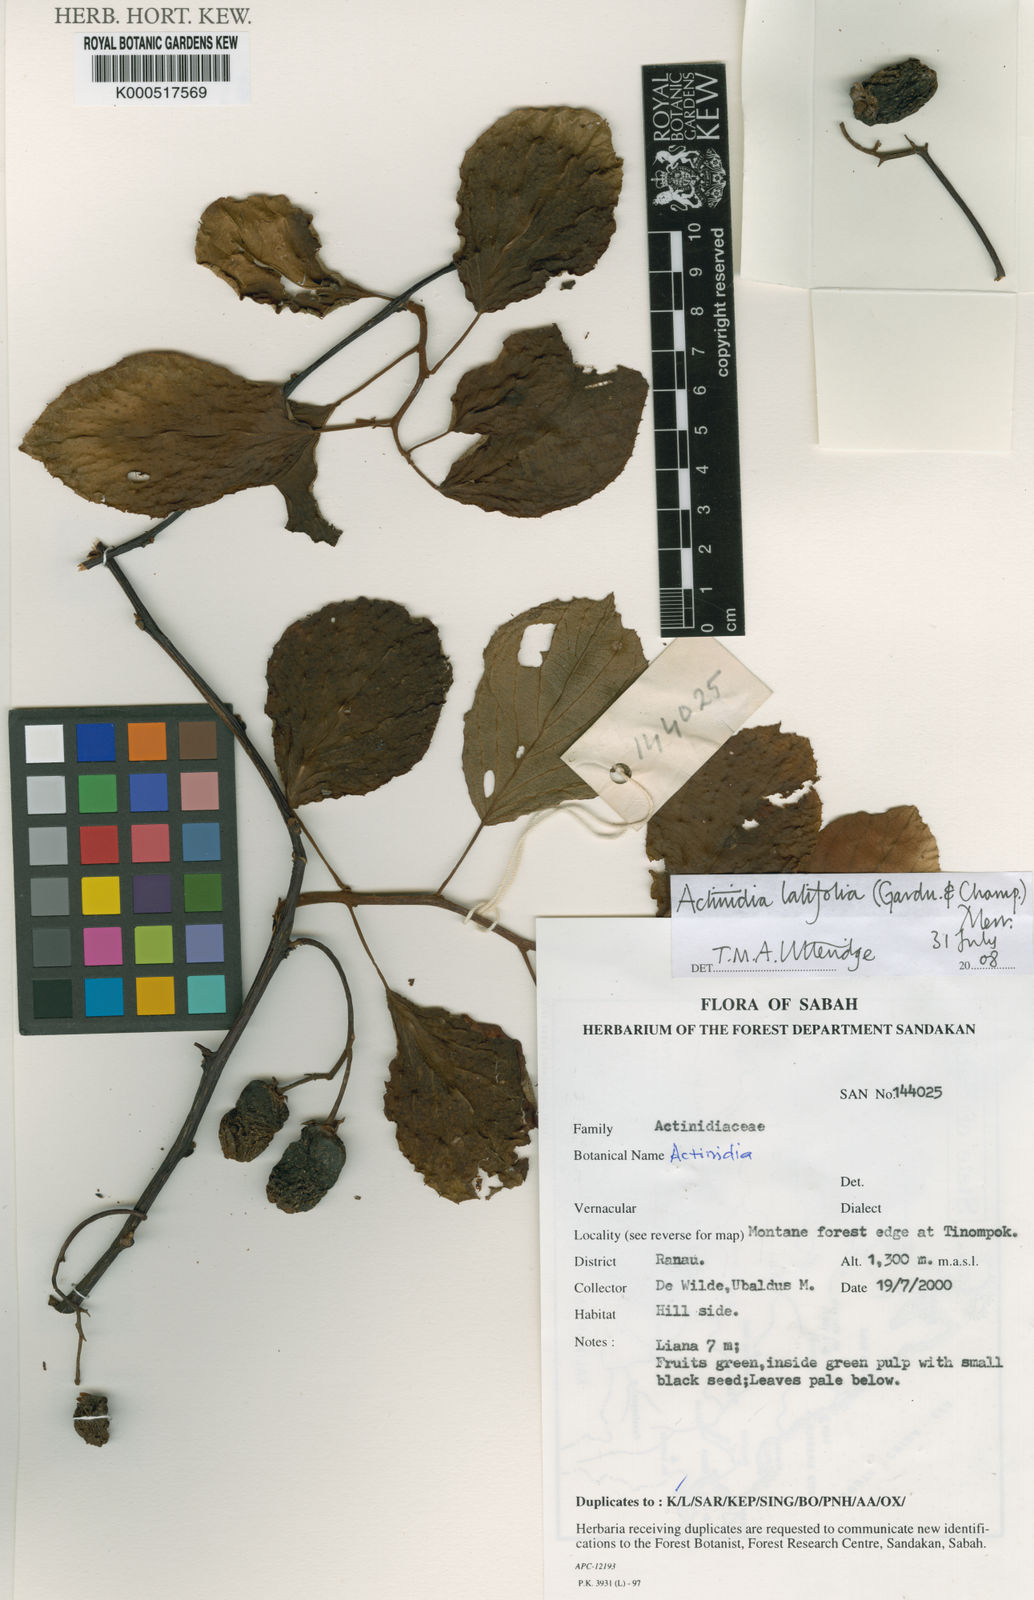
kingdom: Plantae
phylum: Tracheophyta
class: Magnoliopsida
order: Ericales
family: Actinidiaceae
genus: Actinidia
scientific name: Actinidia latifolia
